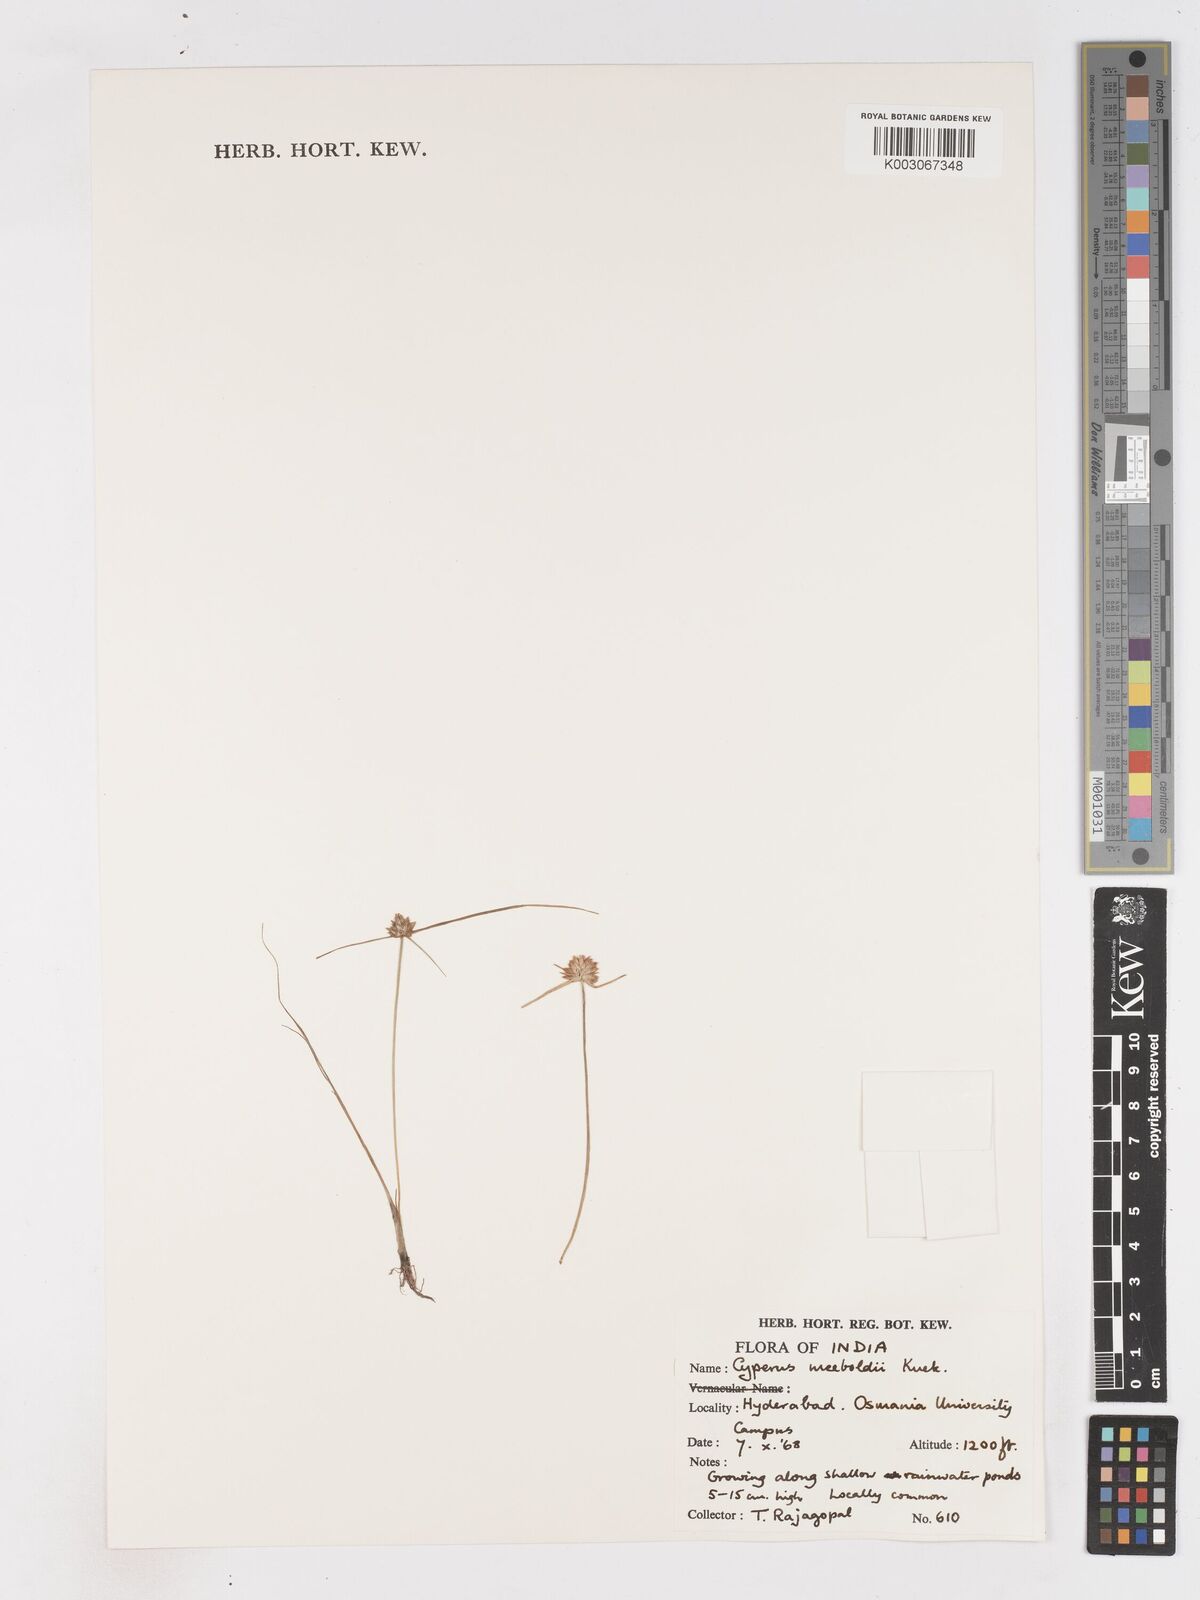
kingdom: Plantae
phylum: Tracheophyta
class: Liliopsida
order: Poales
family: Cyperaceae
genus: Cyperus
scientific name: Cyperus meeboldii
